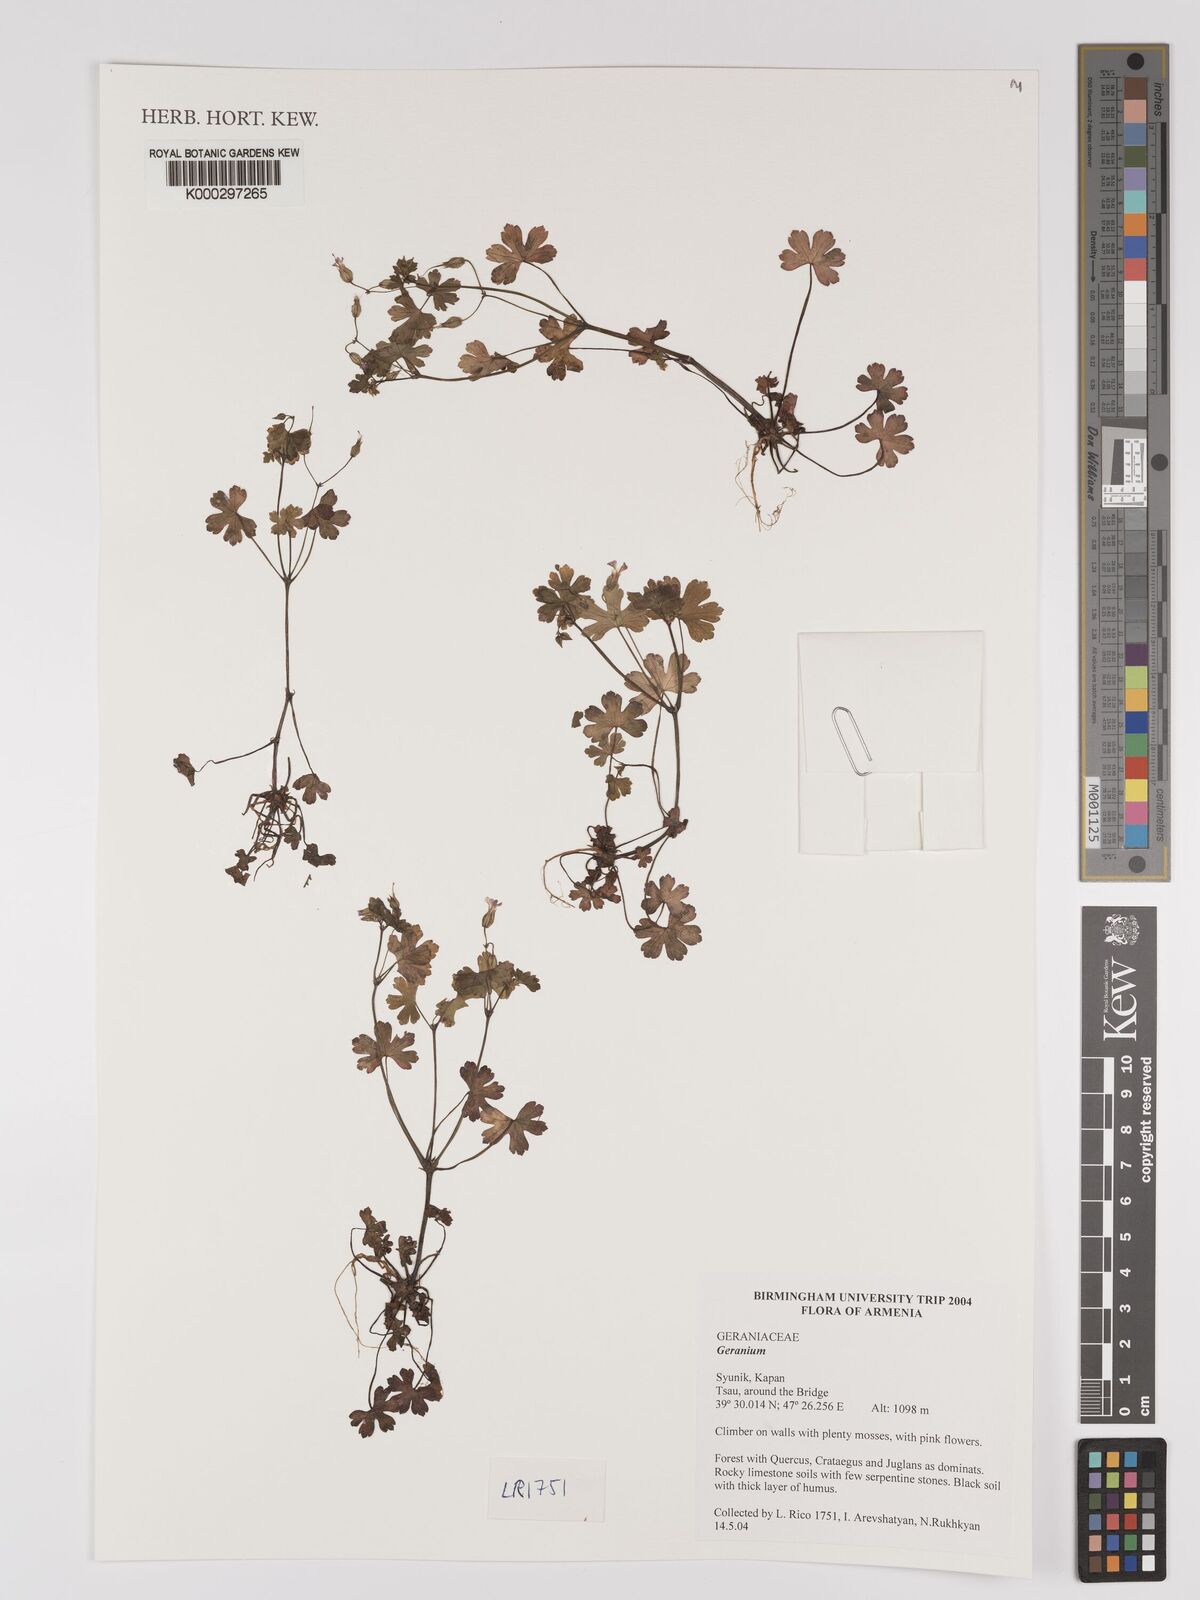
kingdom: Plantae
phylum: Tracheophyta
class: Magnoliopsida
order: Geraniales
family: Geraniaceae
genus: Geranium
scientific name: Geranium
